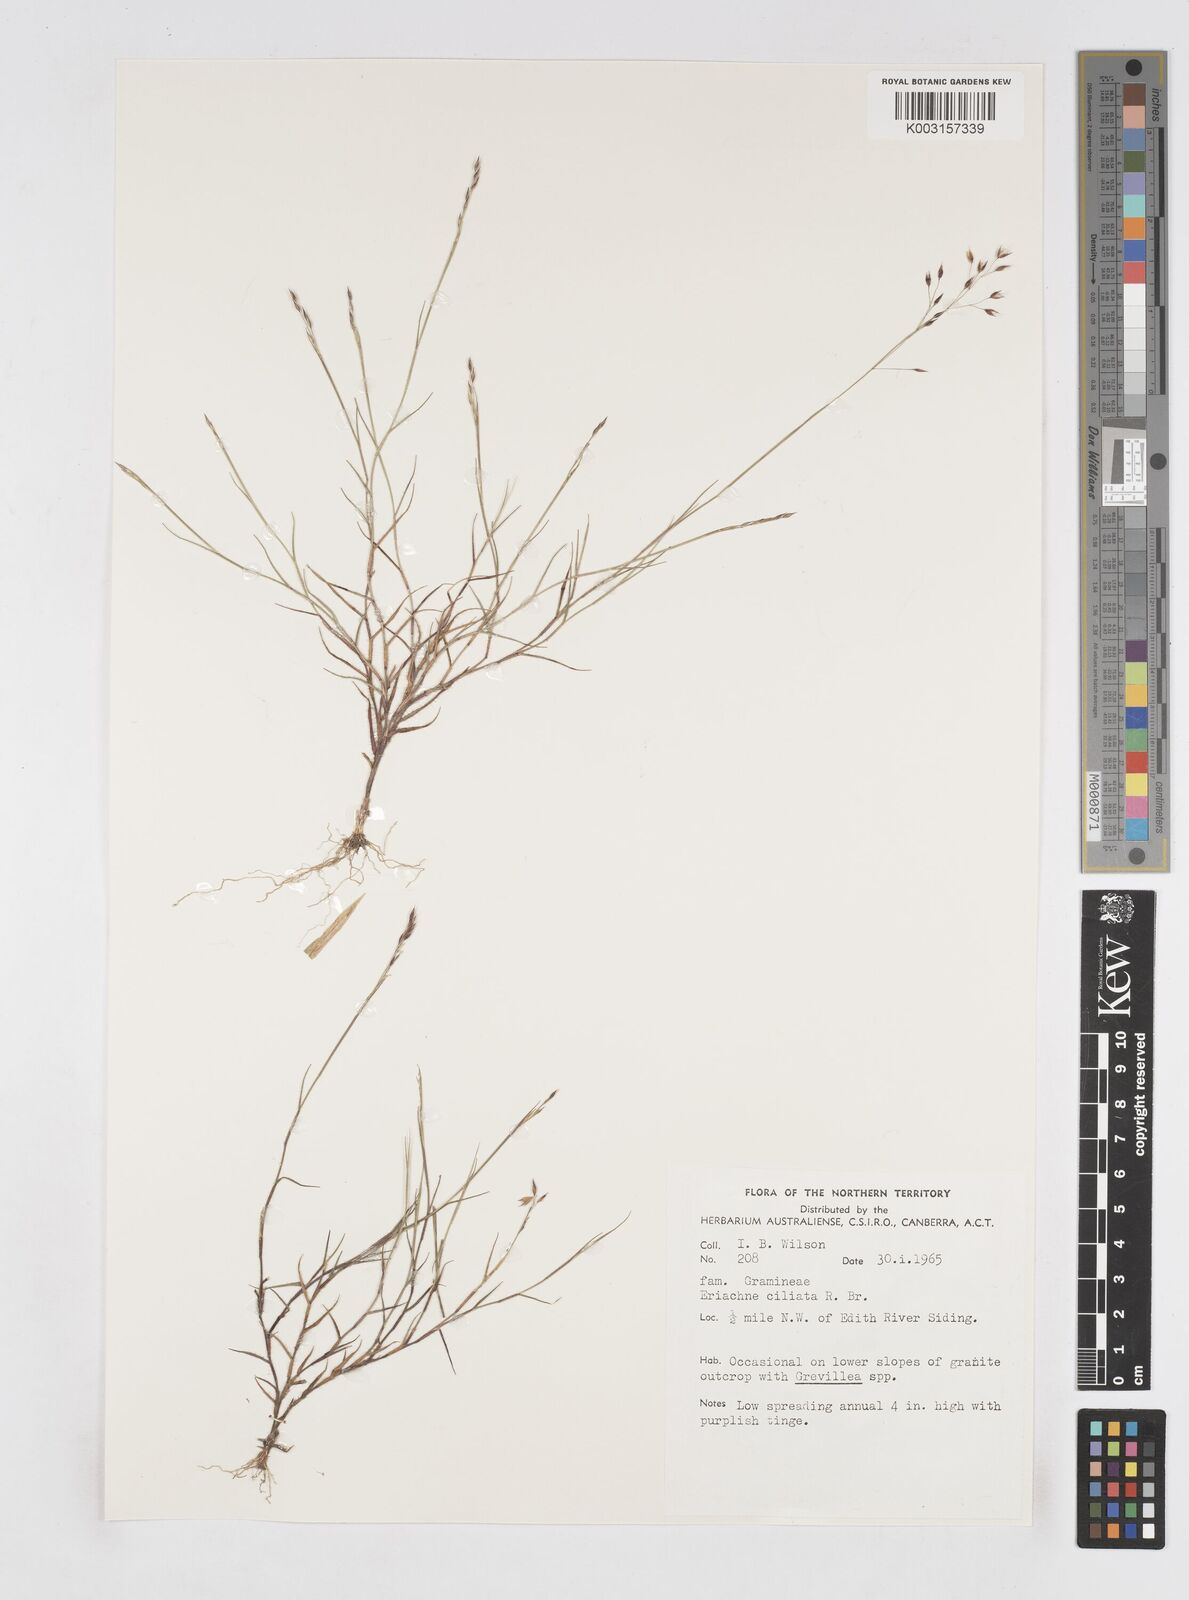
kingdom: Plantae
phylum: Tracheophyta
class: Liliopsida
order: Poales
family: Poaceae
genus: Eriachne
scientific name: Eriachne ciliata
